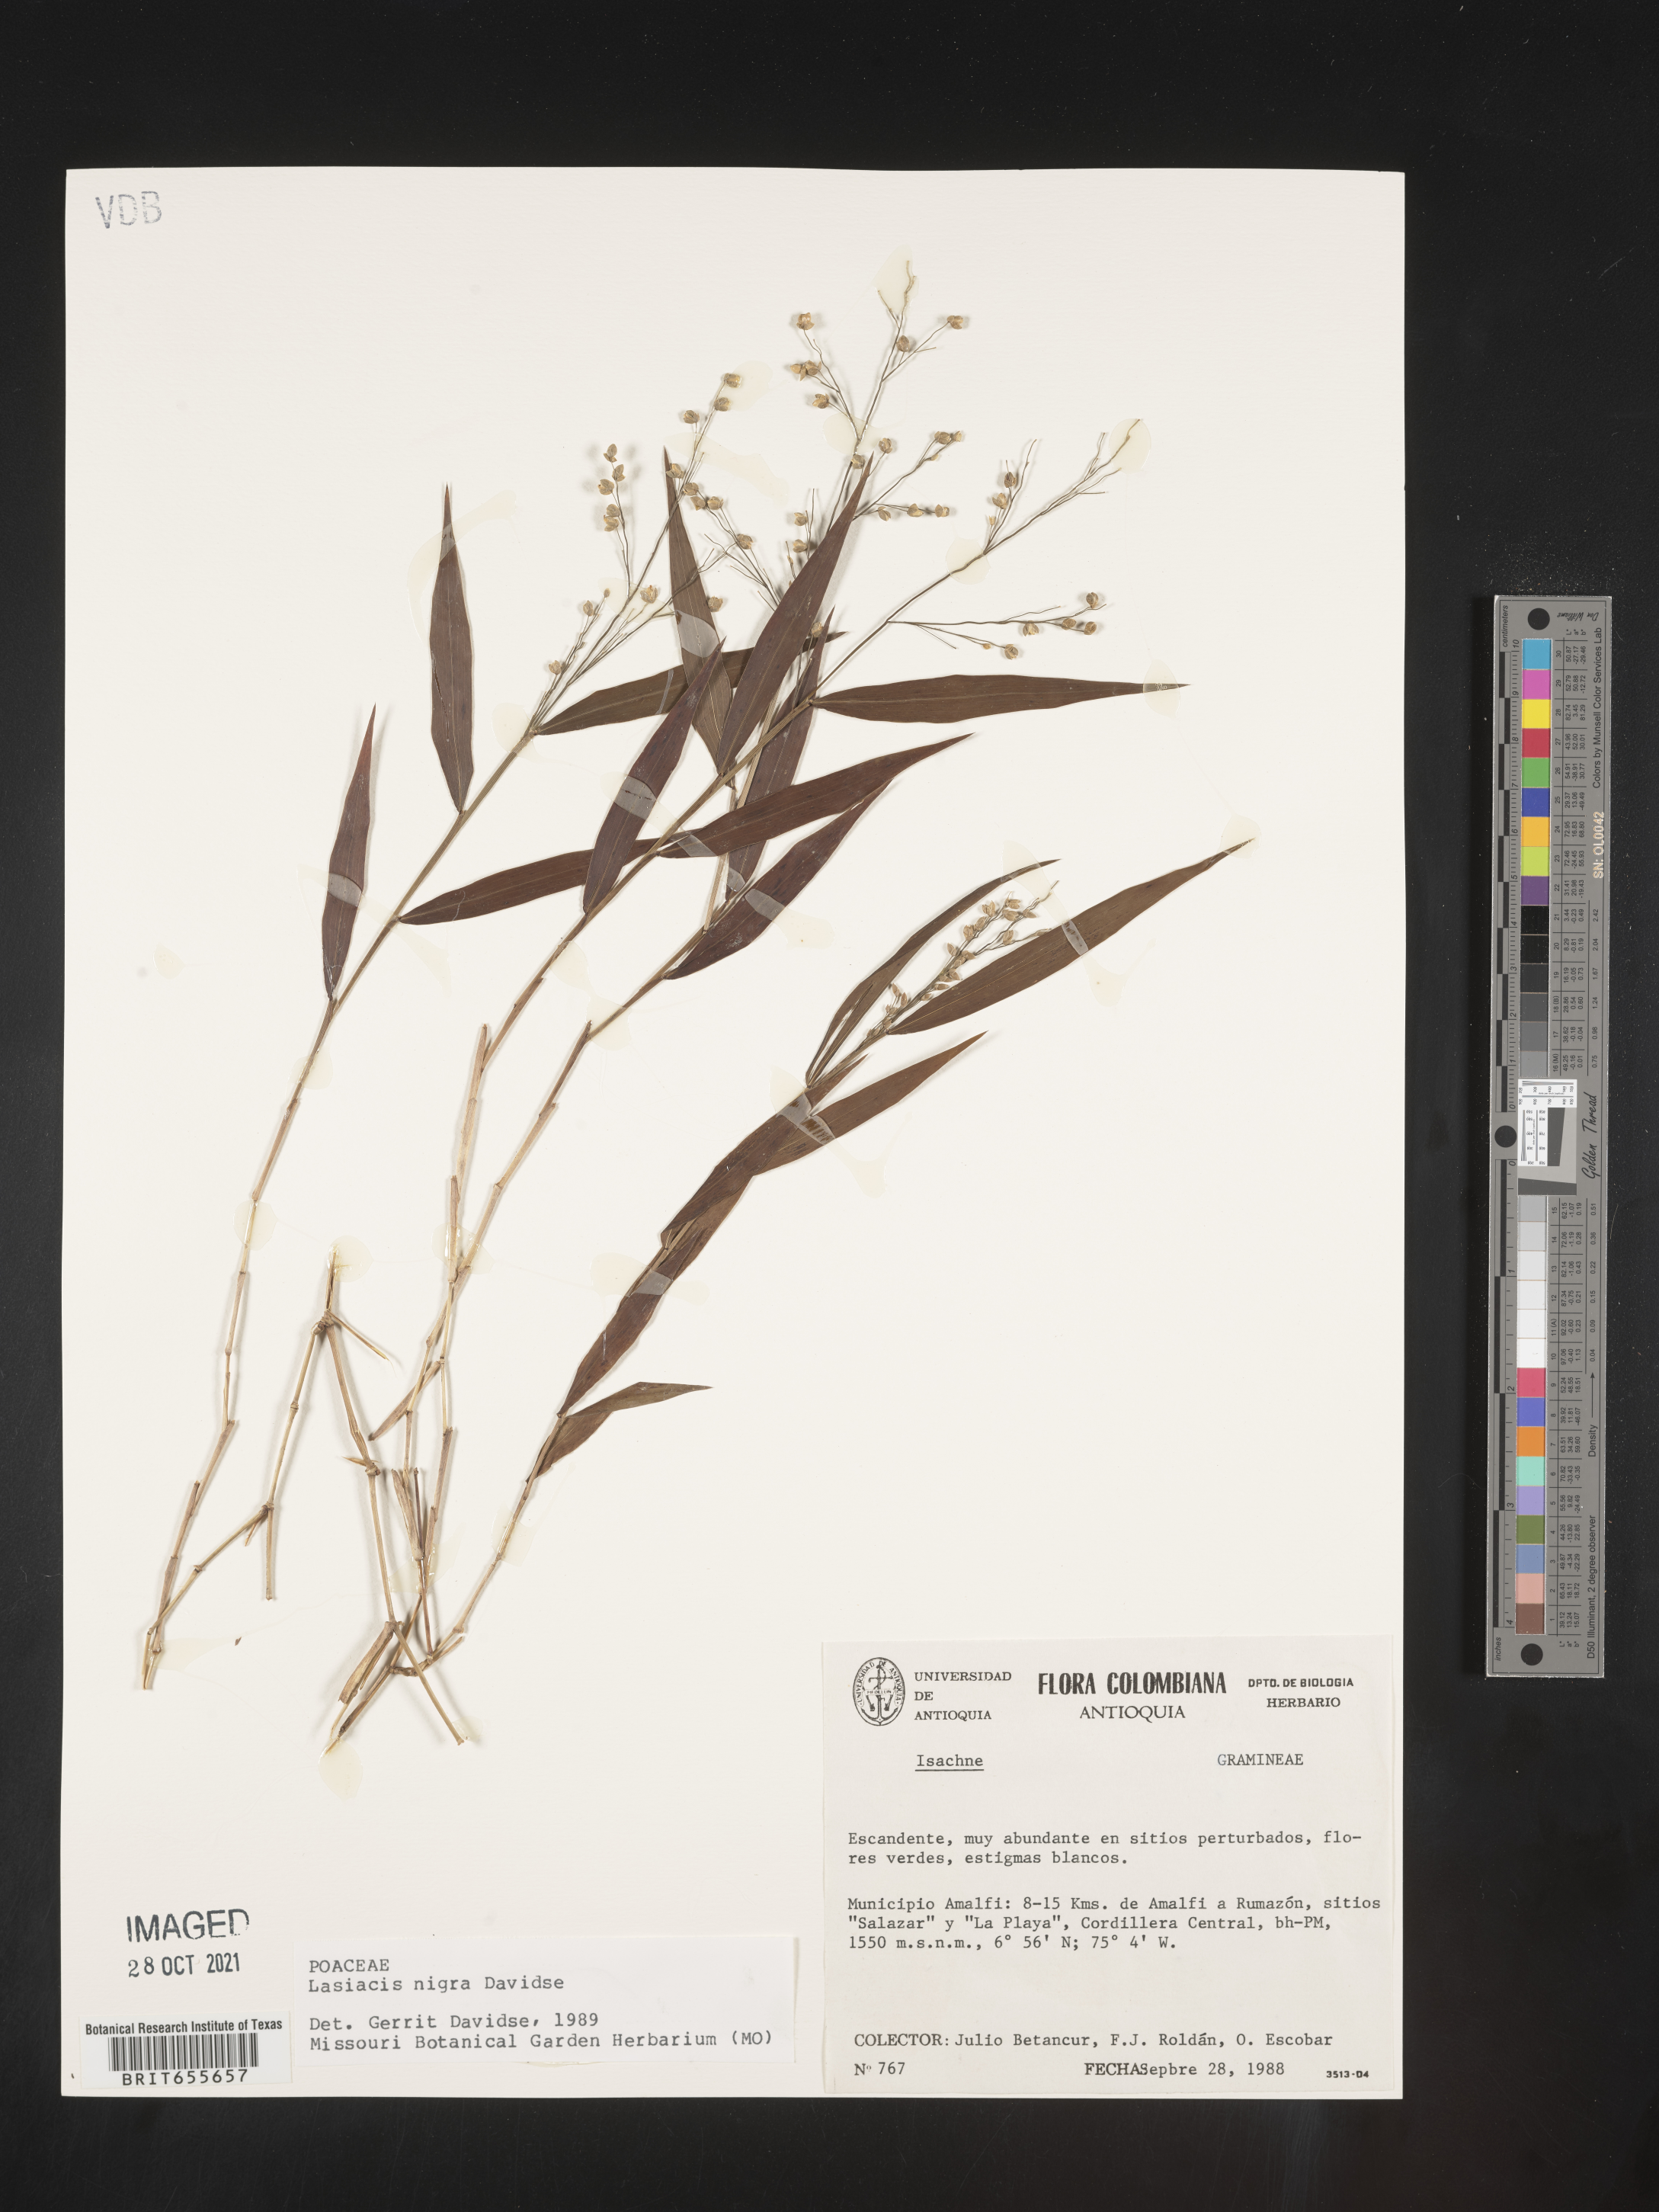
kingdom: Plantae
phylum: Tracheophyta
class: Liliopsida
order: Poales
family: Poaceae
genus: Lasiacis
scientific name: Lasiacis
